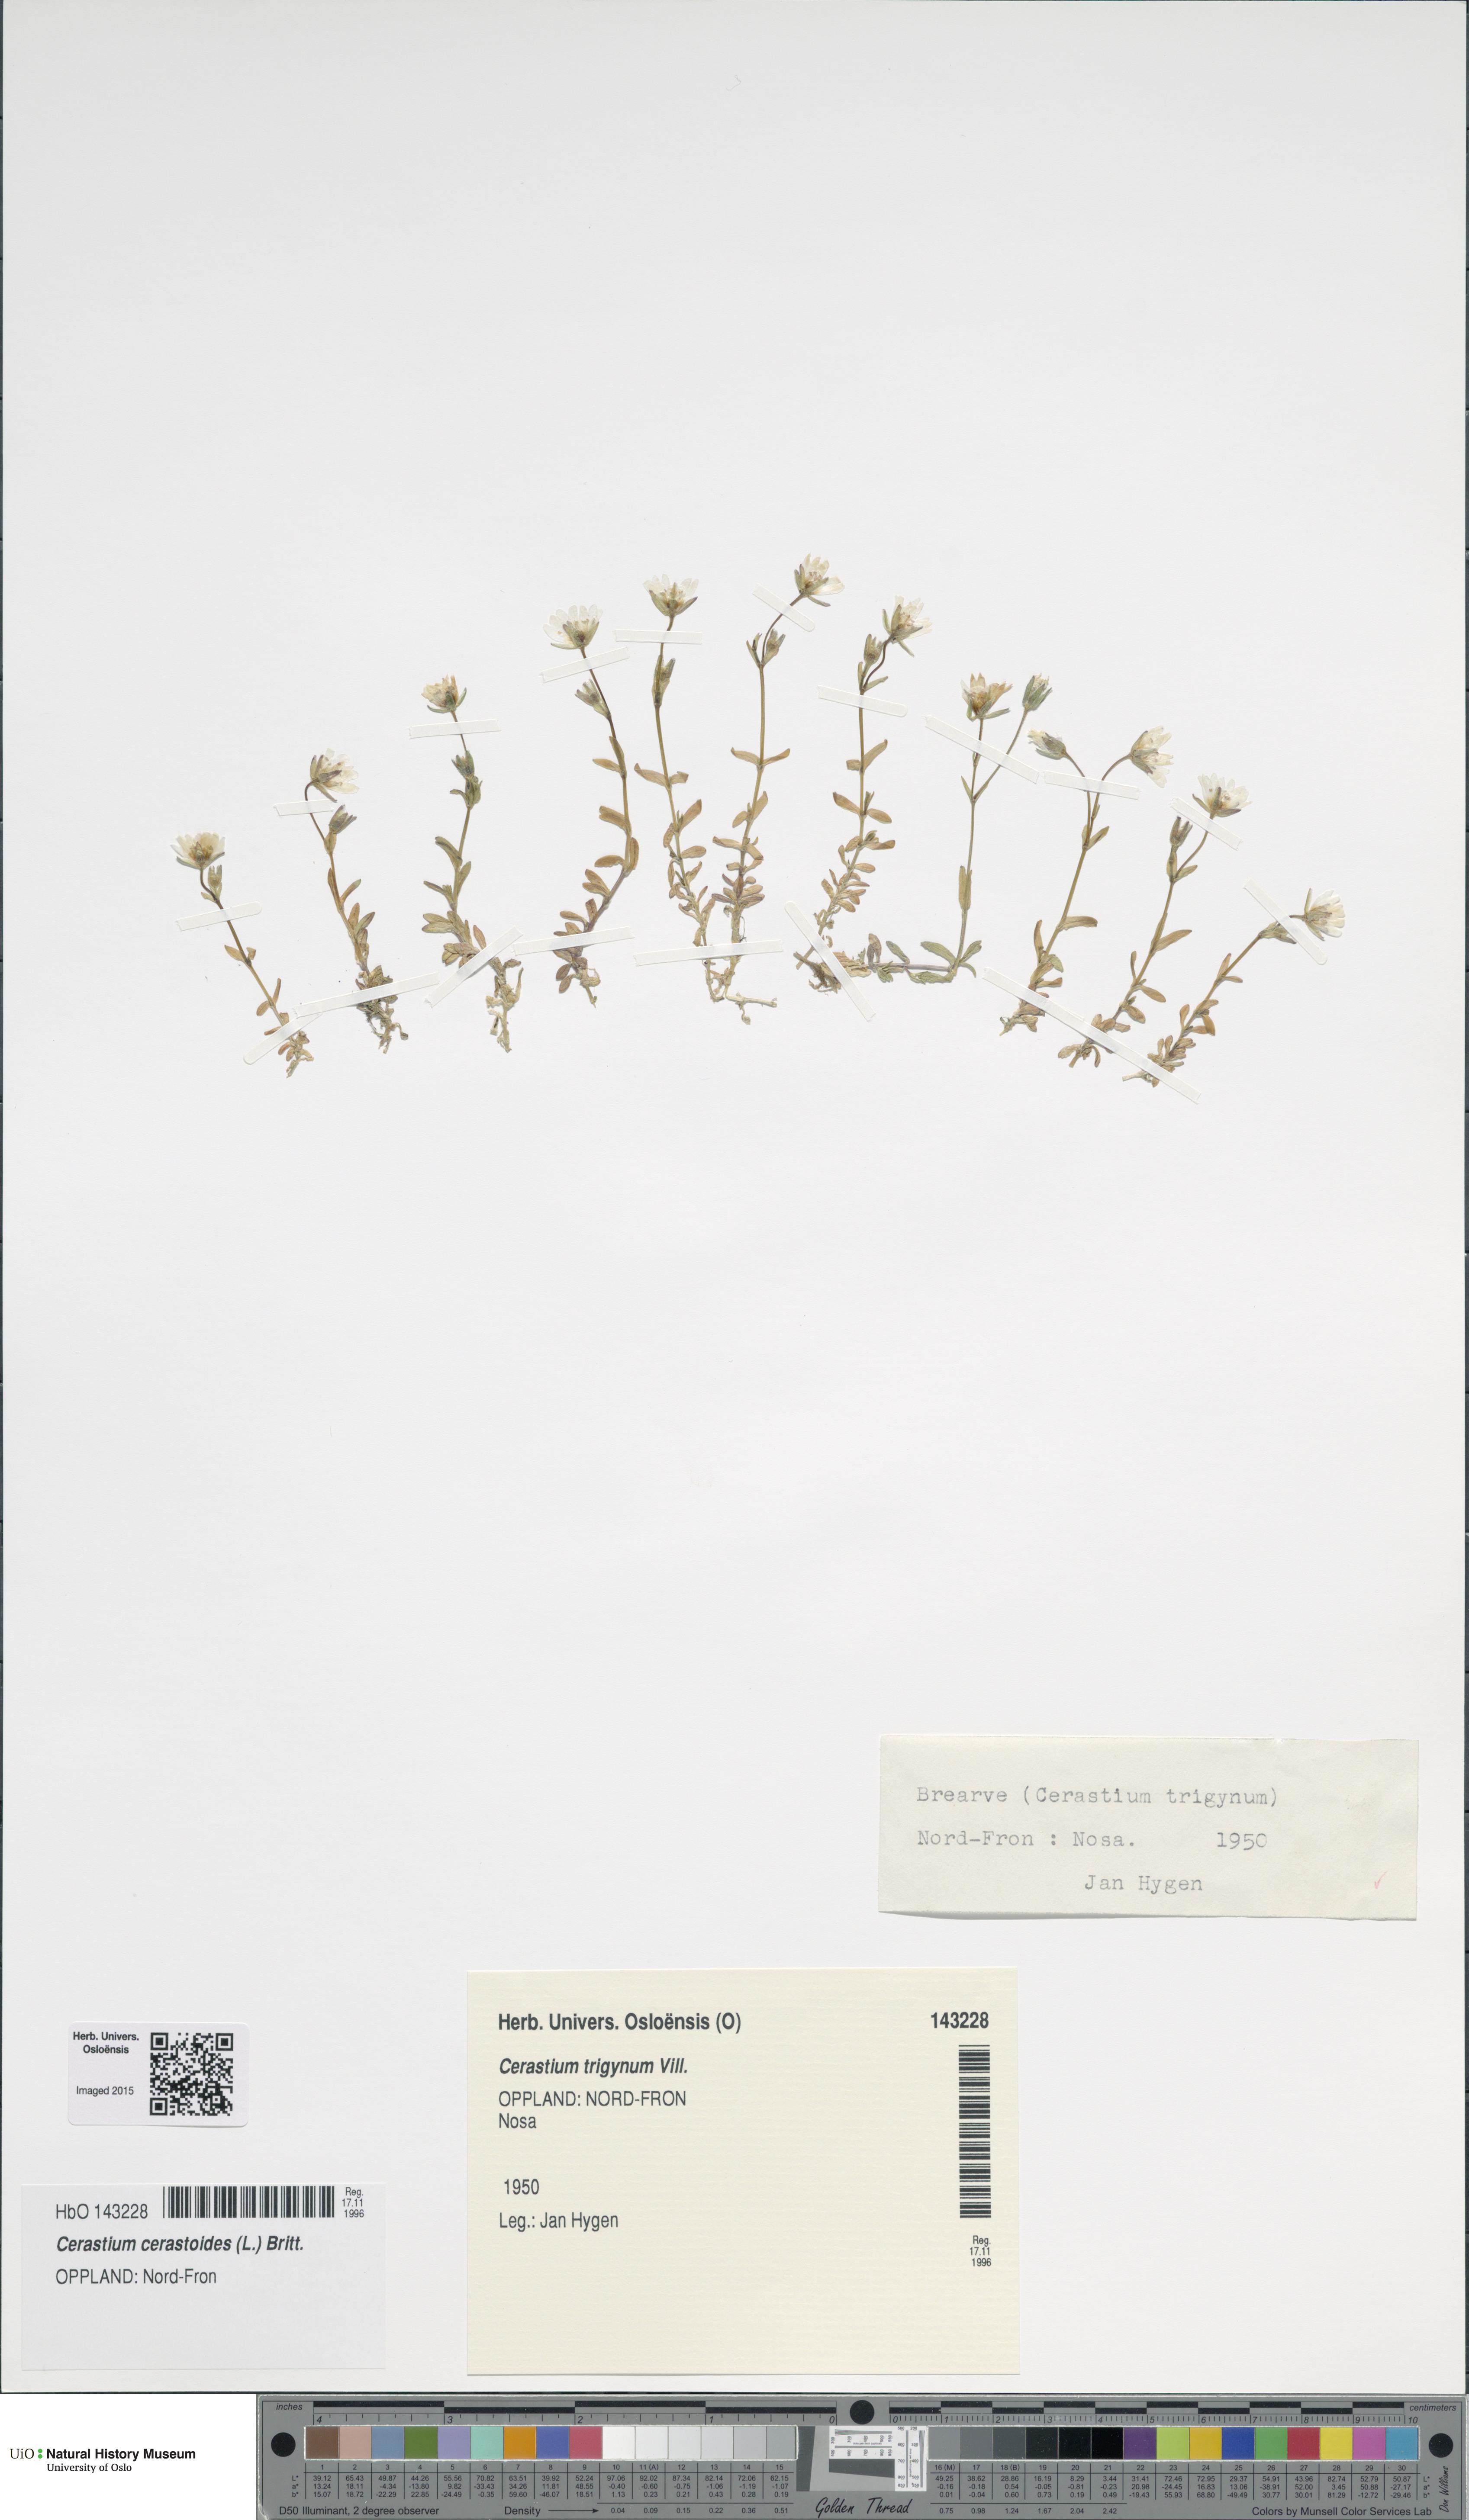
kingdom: Plantae
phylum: Tracheophyta
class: Magnoliopsida
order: Caryophyllales
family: Caryophyllaceae
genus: Dichodon
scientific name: Dichodon cerastoides
